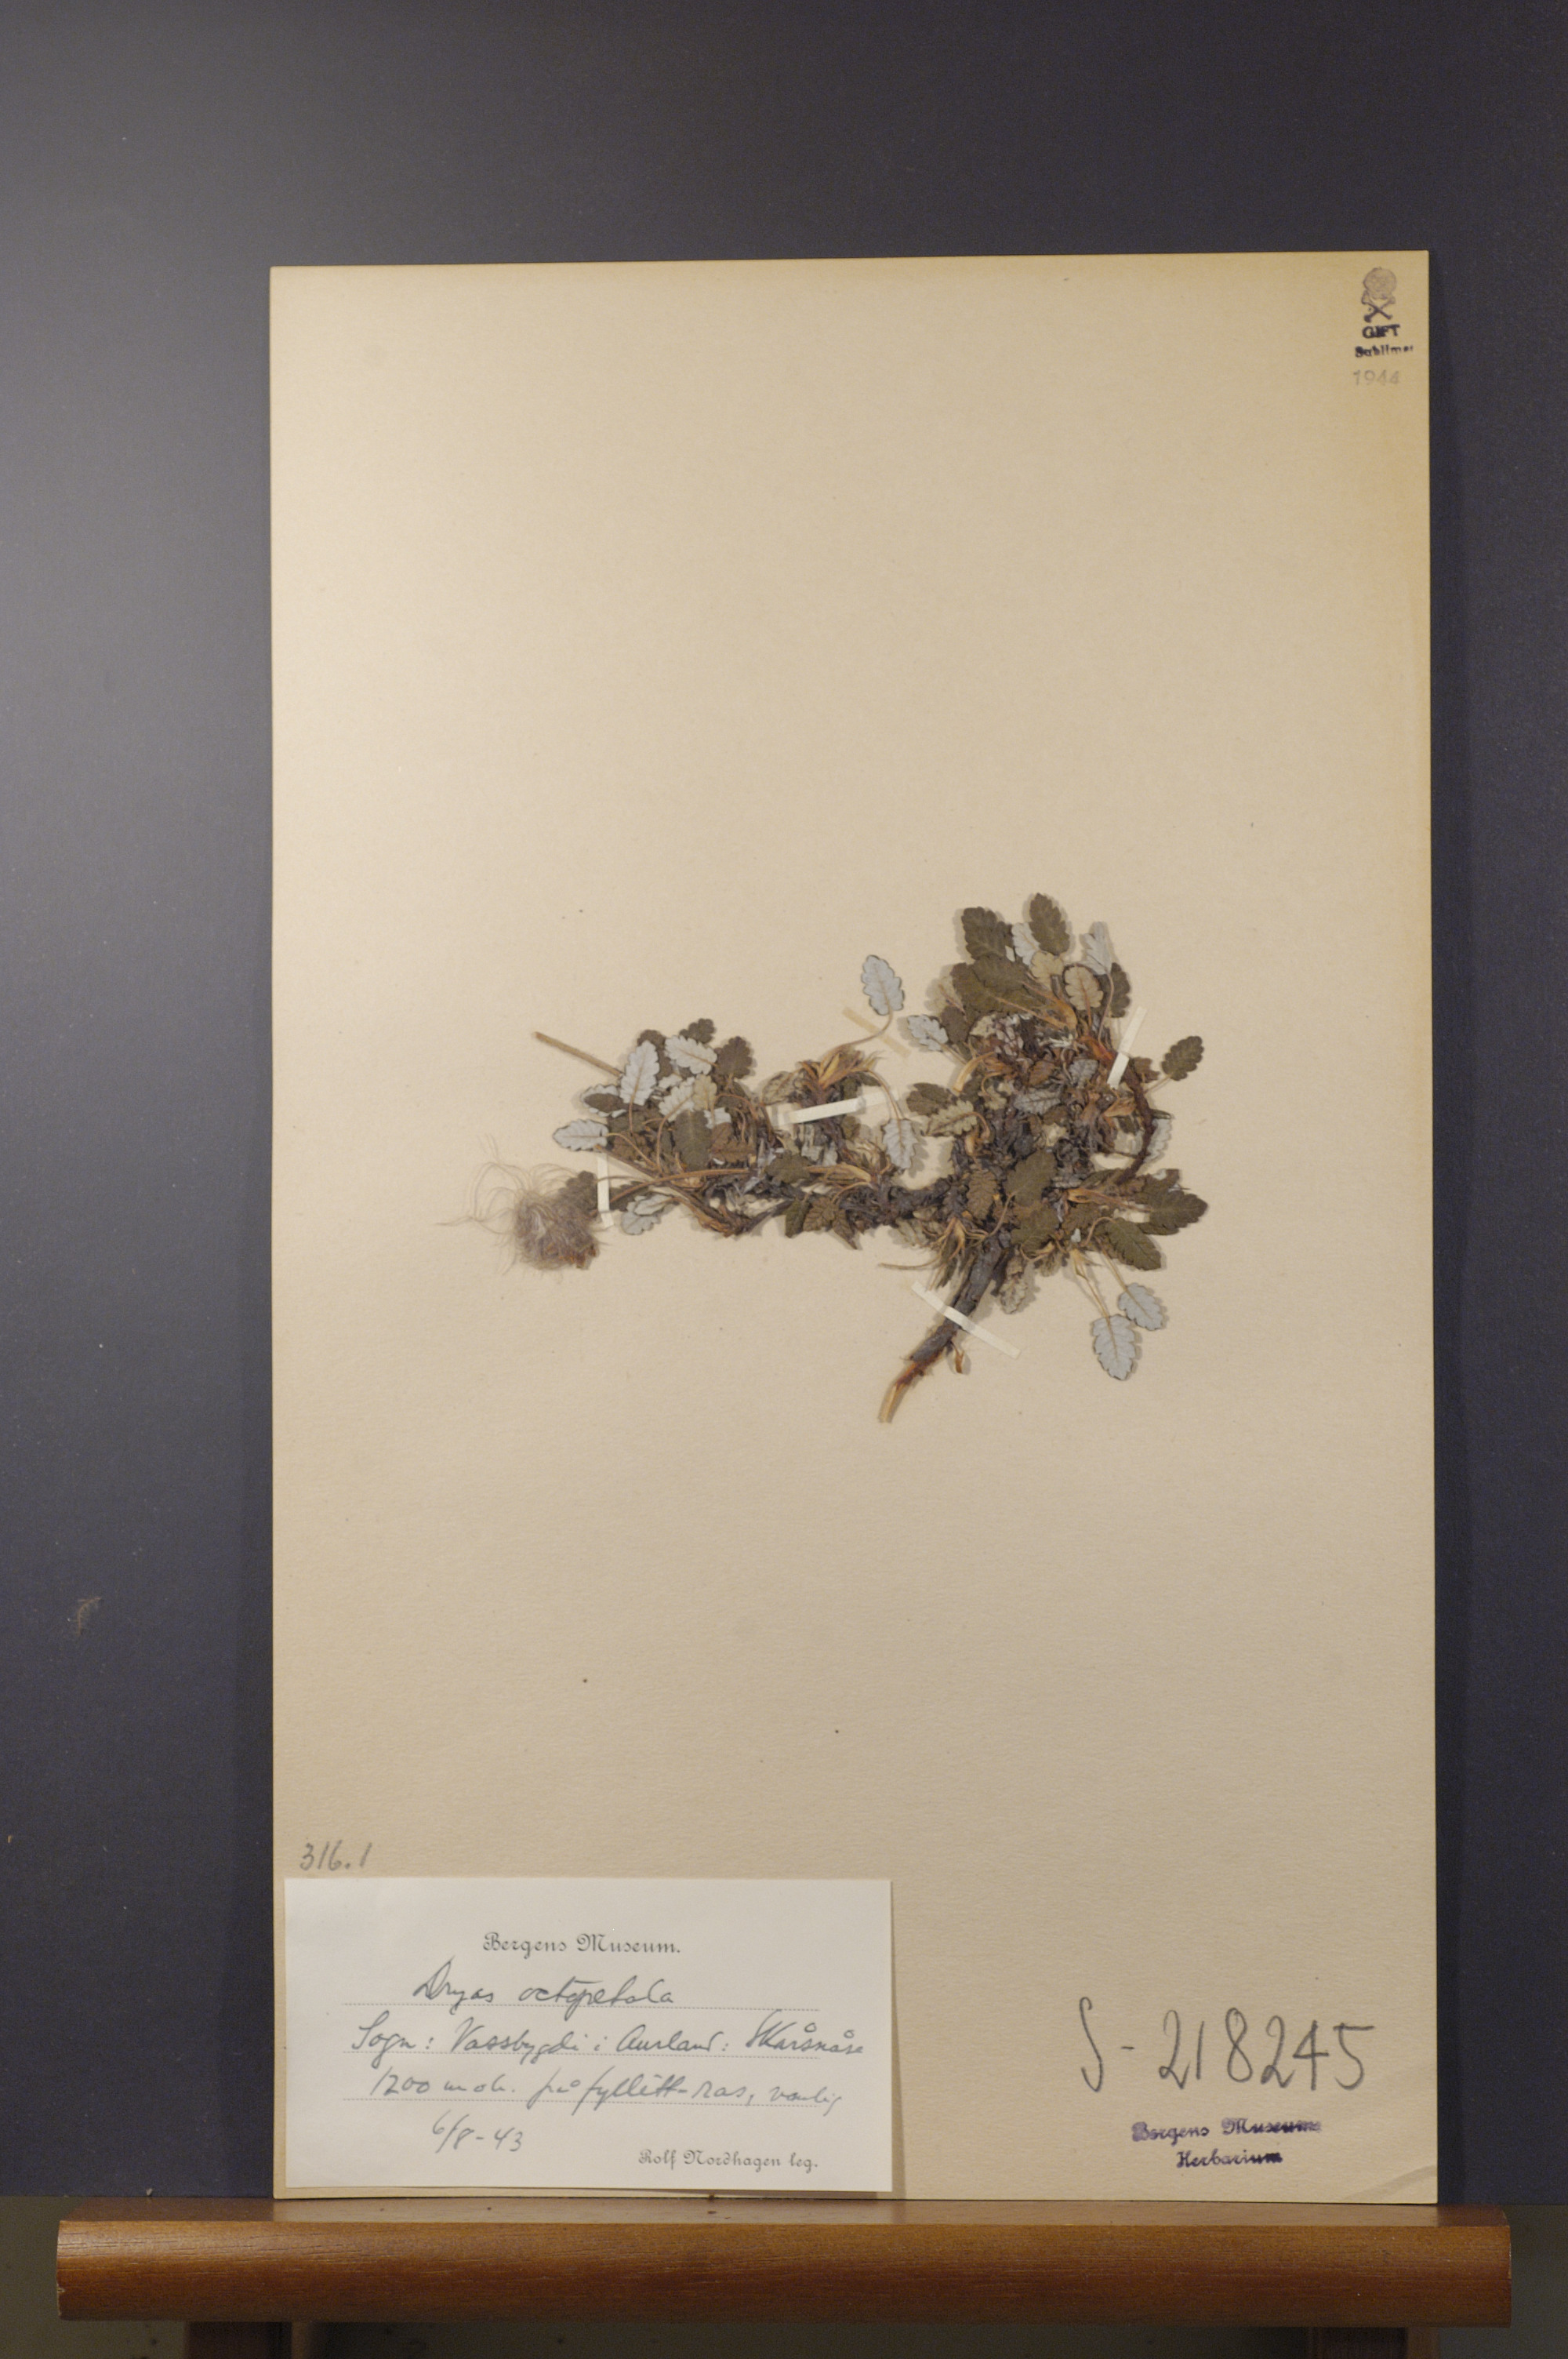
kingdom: Plantae
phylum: Tracheophyta
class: Magnoliopsida
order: Rosales
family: Rosaceae
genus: Dryas
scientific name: Dryas octopetala
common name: Eight-petal mountain-avens
